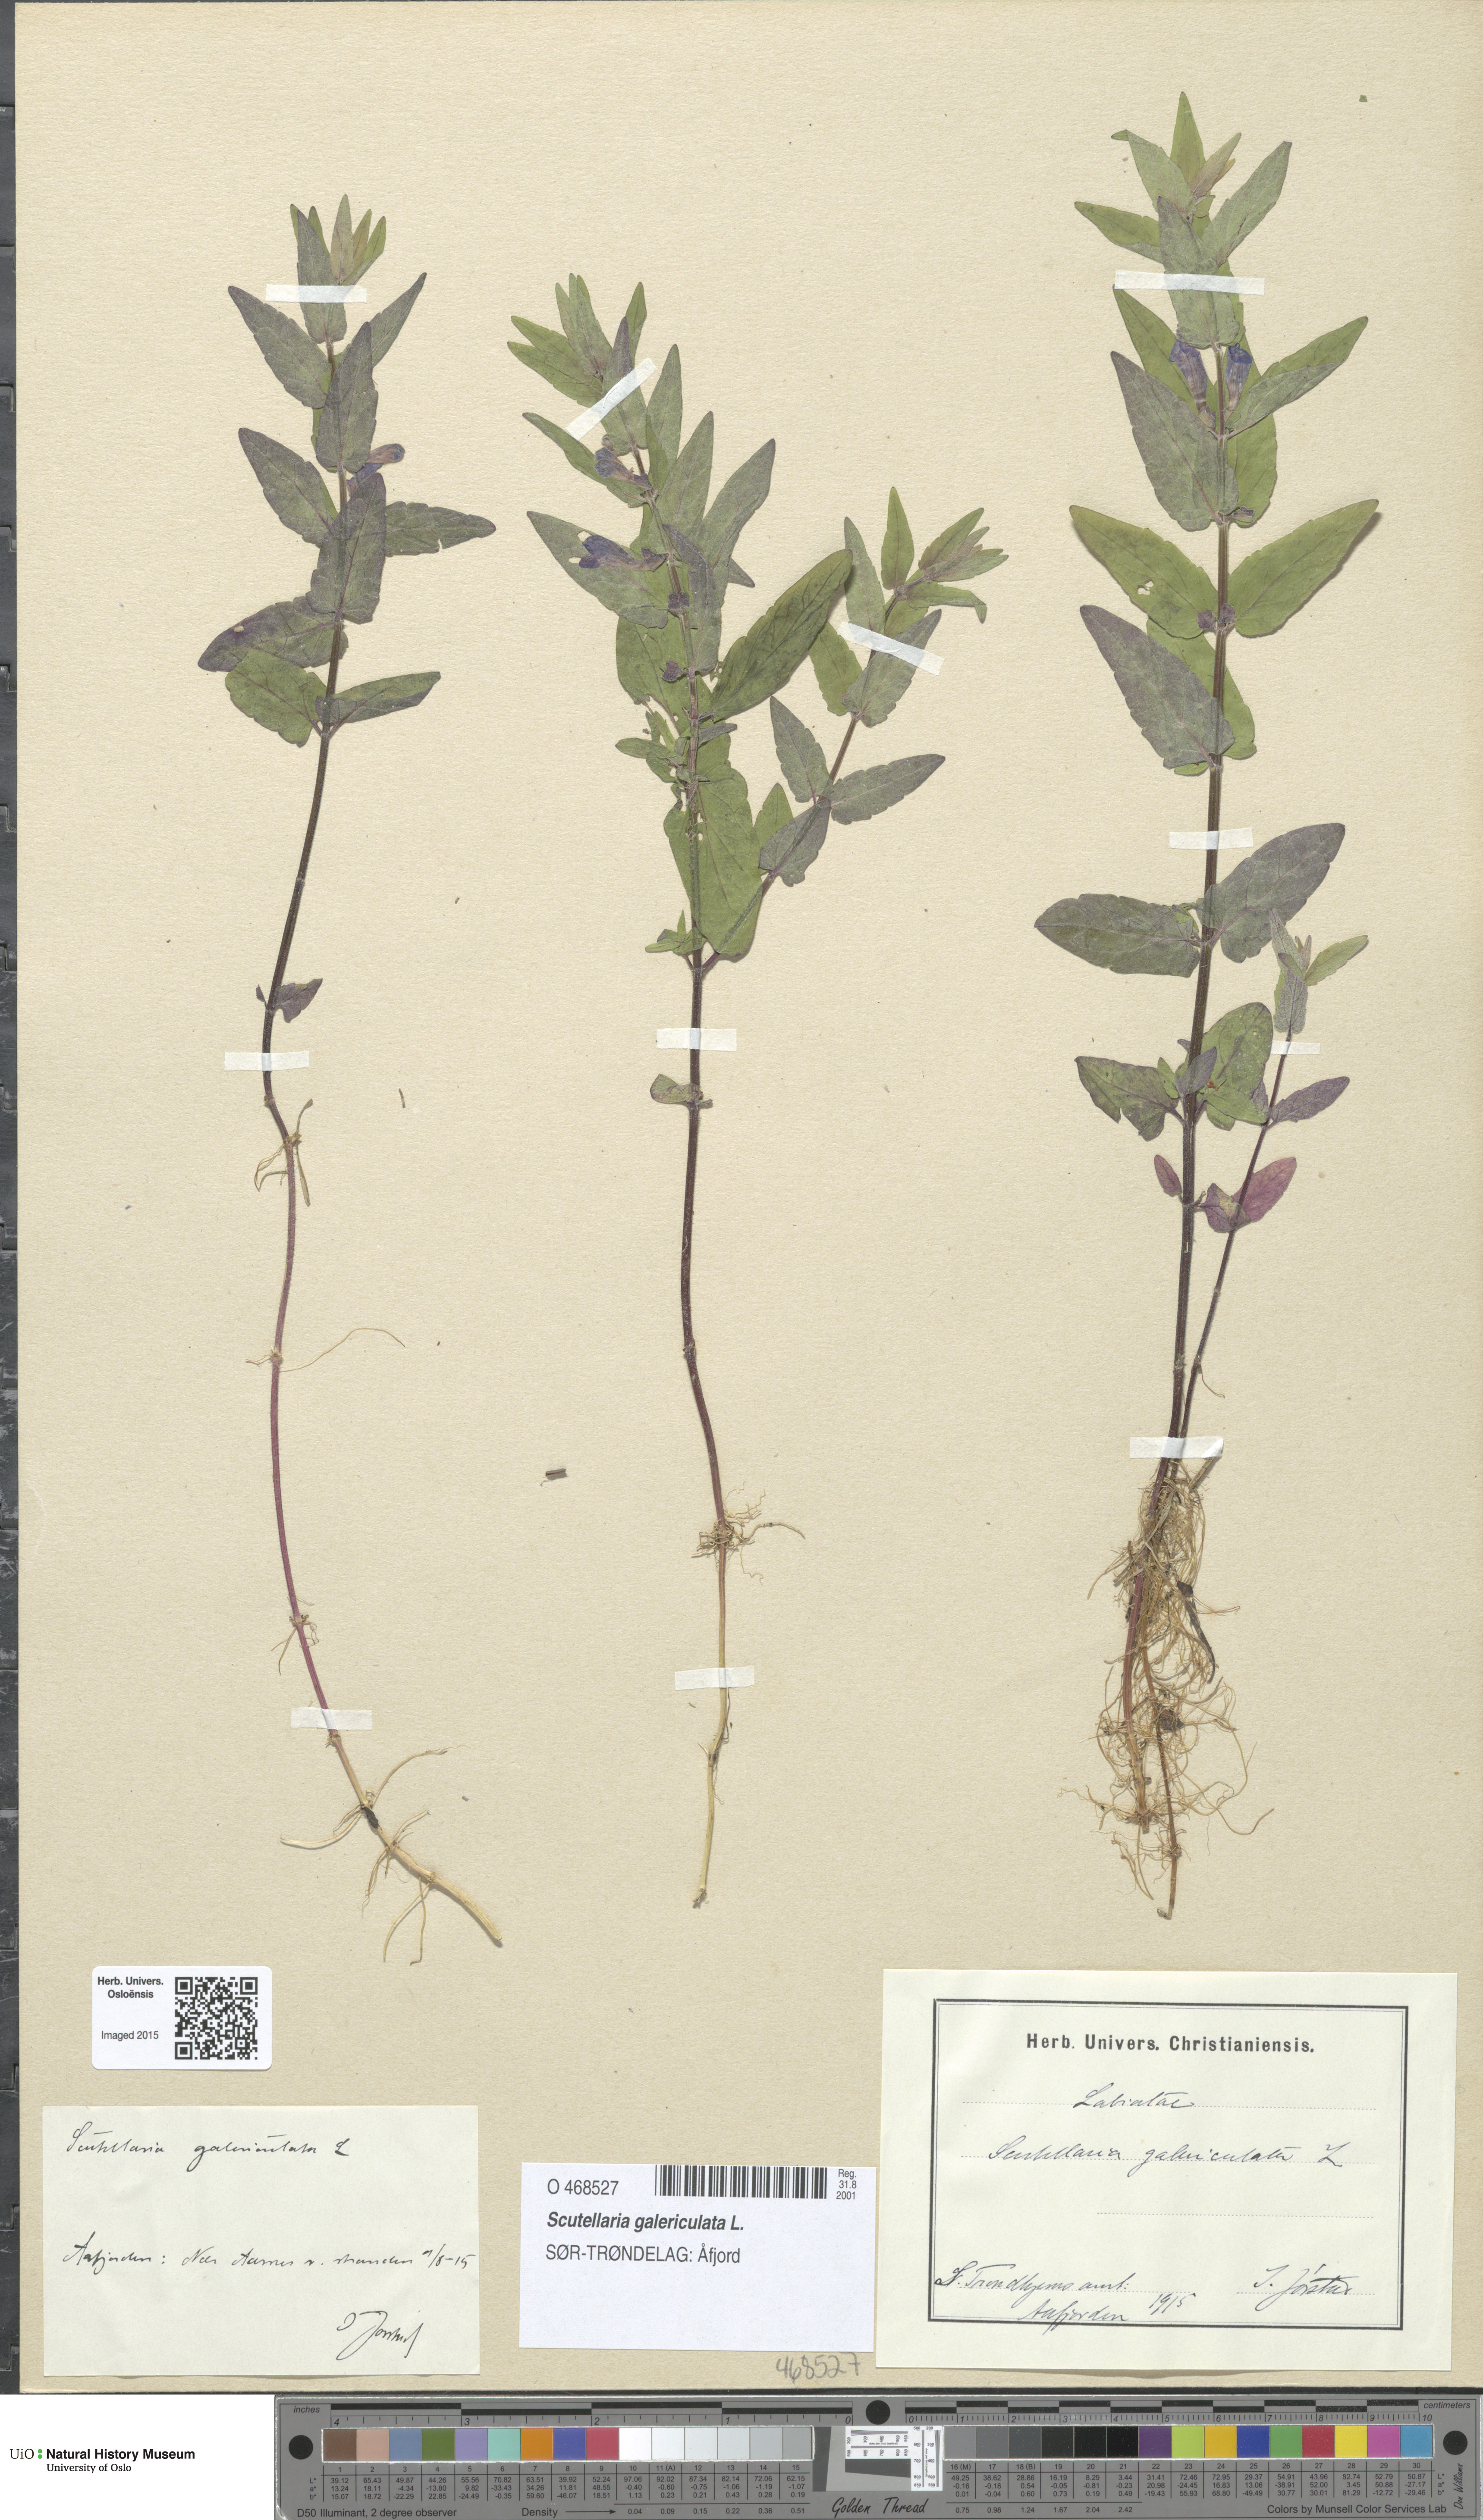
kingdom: Plantae
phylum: Tracheophyta
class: Magnoliopsida
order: Lamiales
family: Lamiaceae
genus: Scutellaria
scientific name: Scutellaria galericulata
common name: Skullcap
